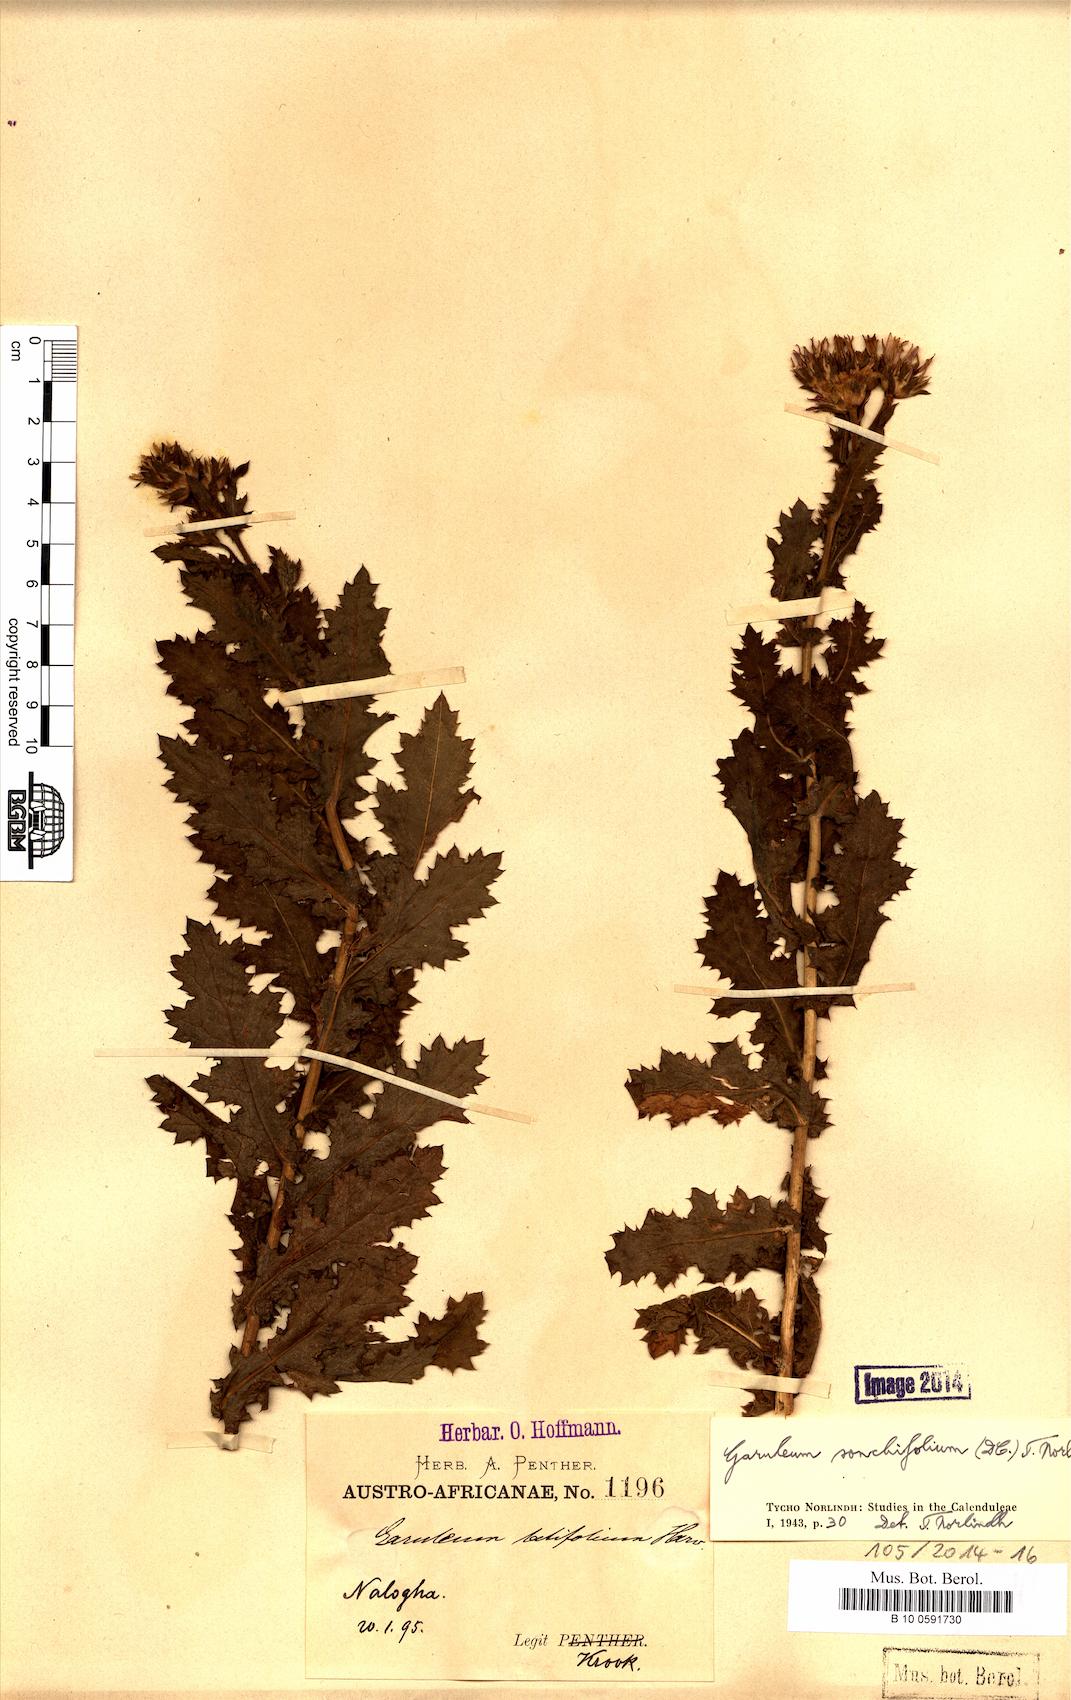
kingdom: Plantae
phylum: Tracheophyta
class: Magnoliopsida
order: Asterales
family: Asteraceae
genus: Garuleum
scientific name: Garuleum sonchifolium
